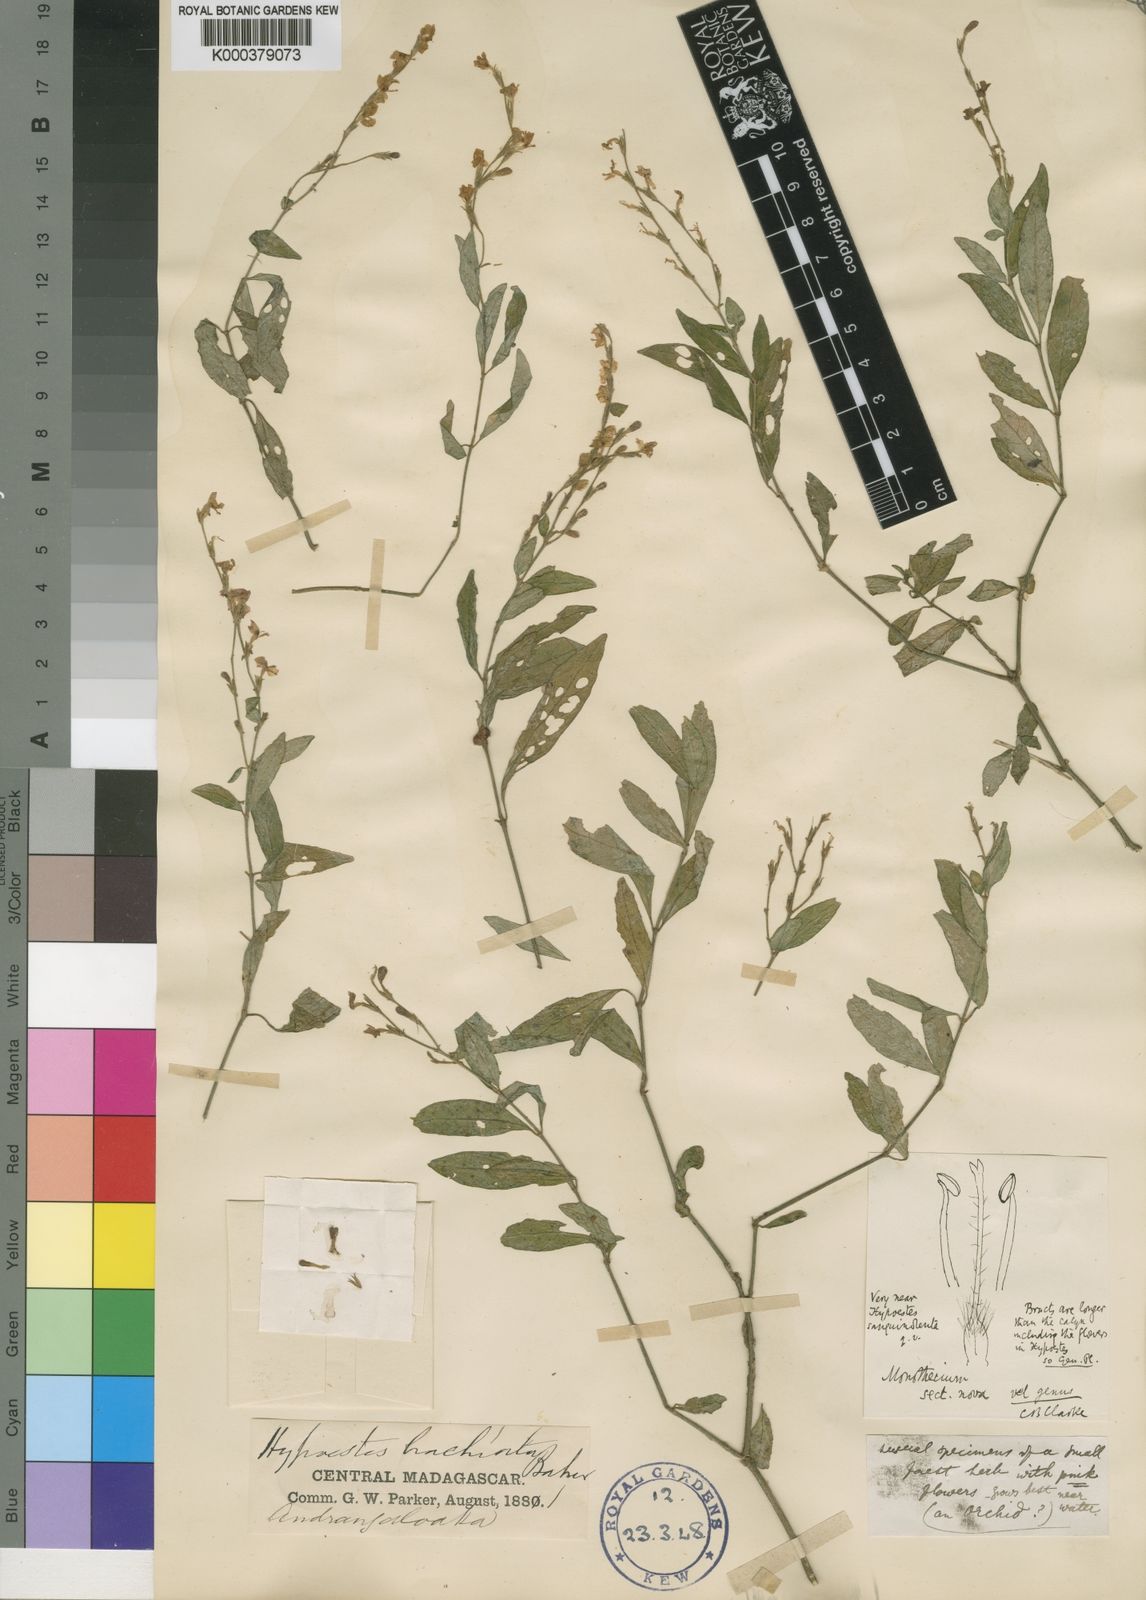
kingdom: Plantae
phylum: Tracheophyta
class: Magnoliopsida
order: Lamiales
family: Acanthaceae
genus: Hypoestes
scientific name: Hypoestes brachiata
